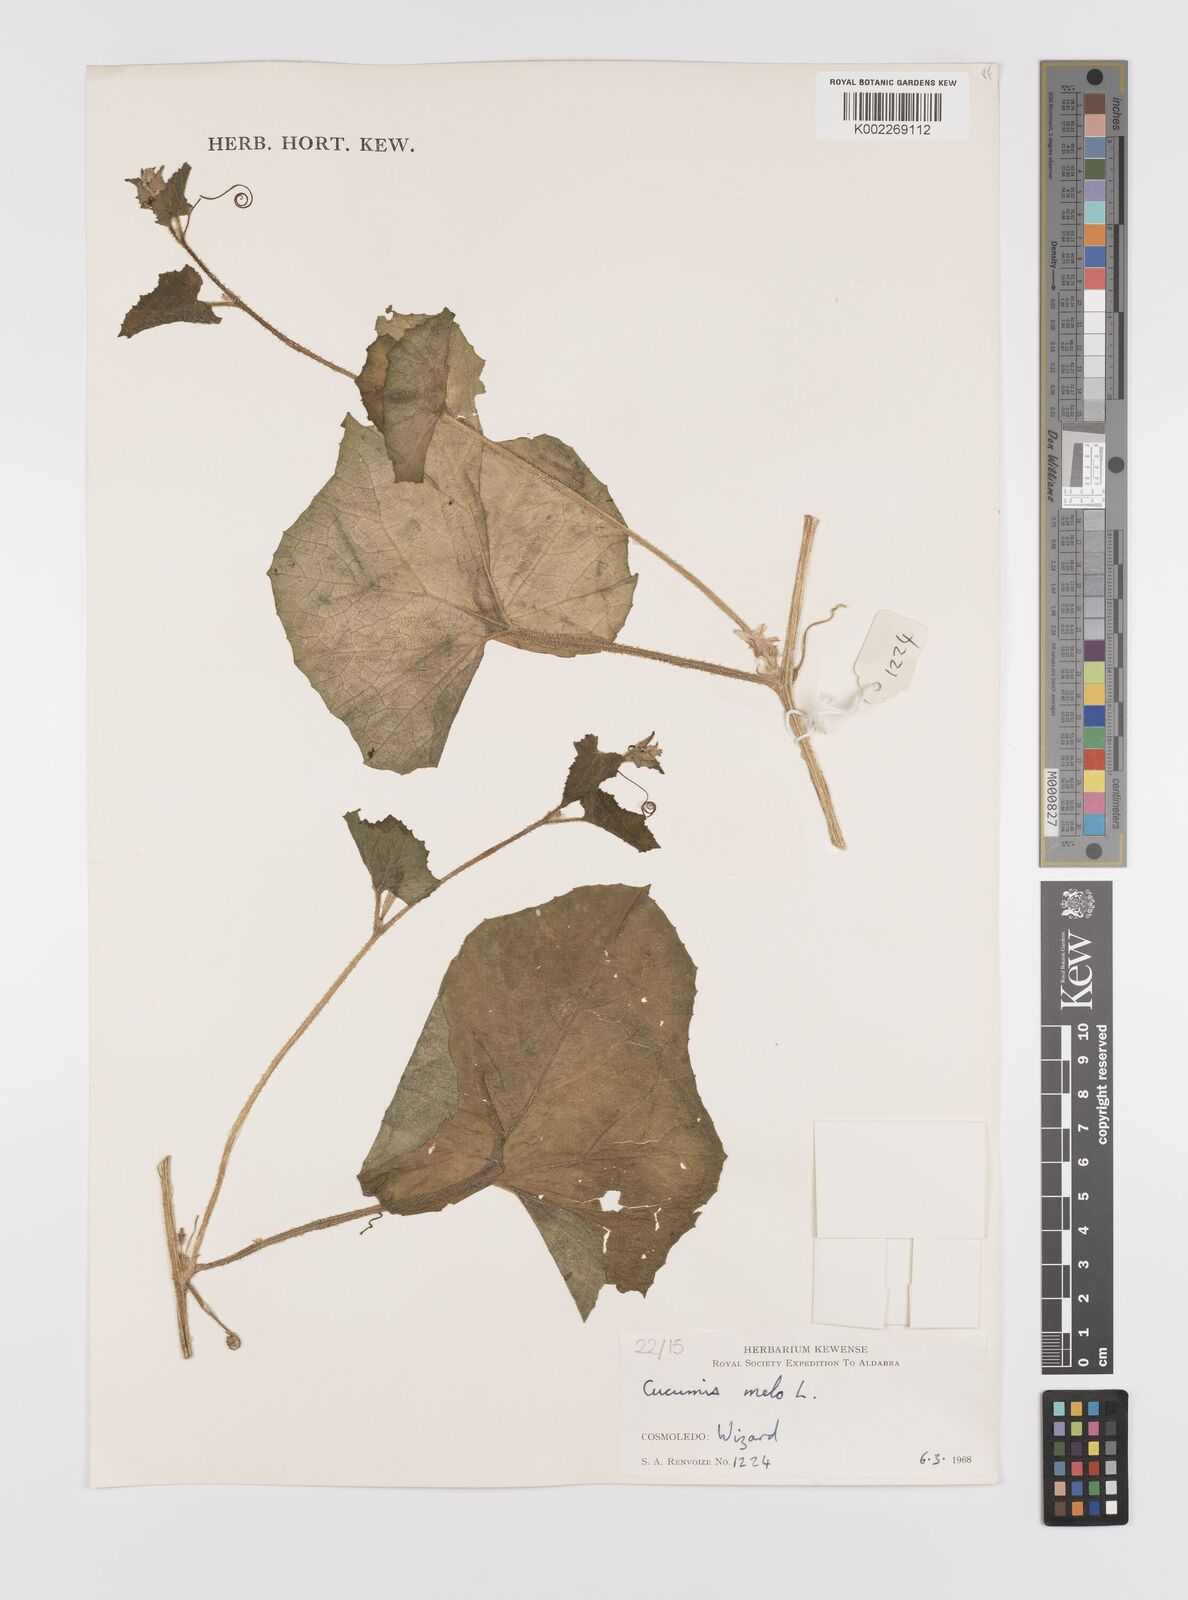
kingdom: Plantae
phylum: Tracheophyta
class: Magnoliopsida
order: Cucurbitales
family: Cucurbitaceae
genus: Cucumis
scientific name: Cucumis melo
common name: Melon
